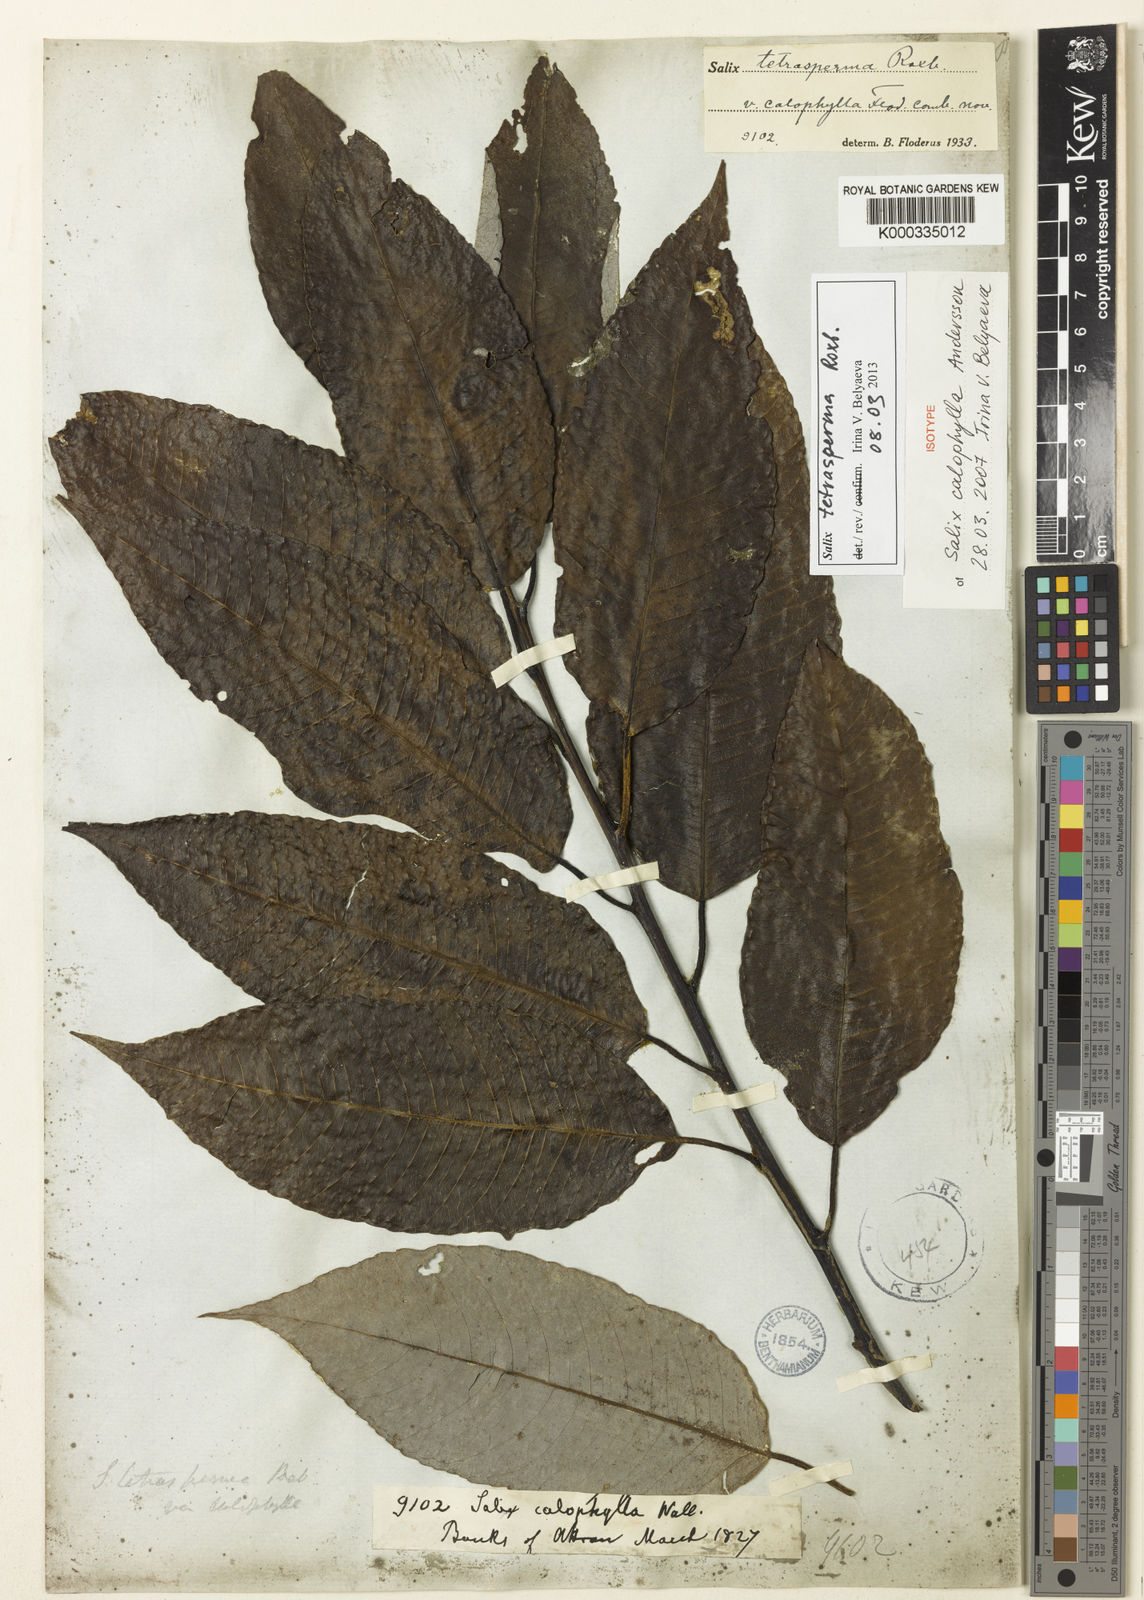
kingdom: Plantae
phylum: Tracheophyta
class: Magnoliopsida
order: Malpighiales
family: Salicaceae
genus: Salix
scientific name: Salix tetrasperma
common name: Indian willow
